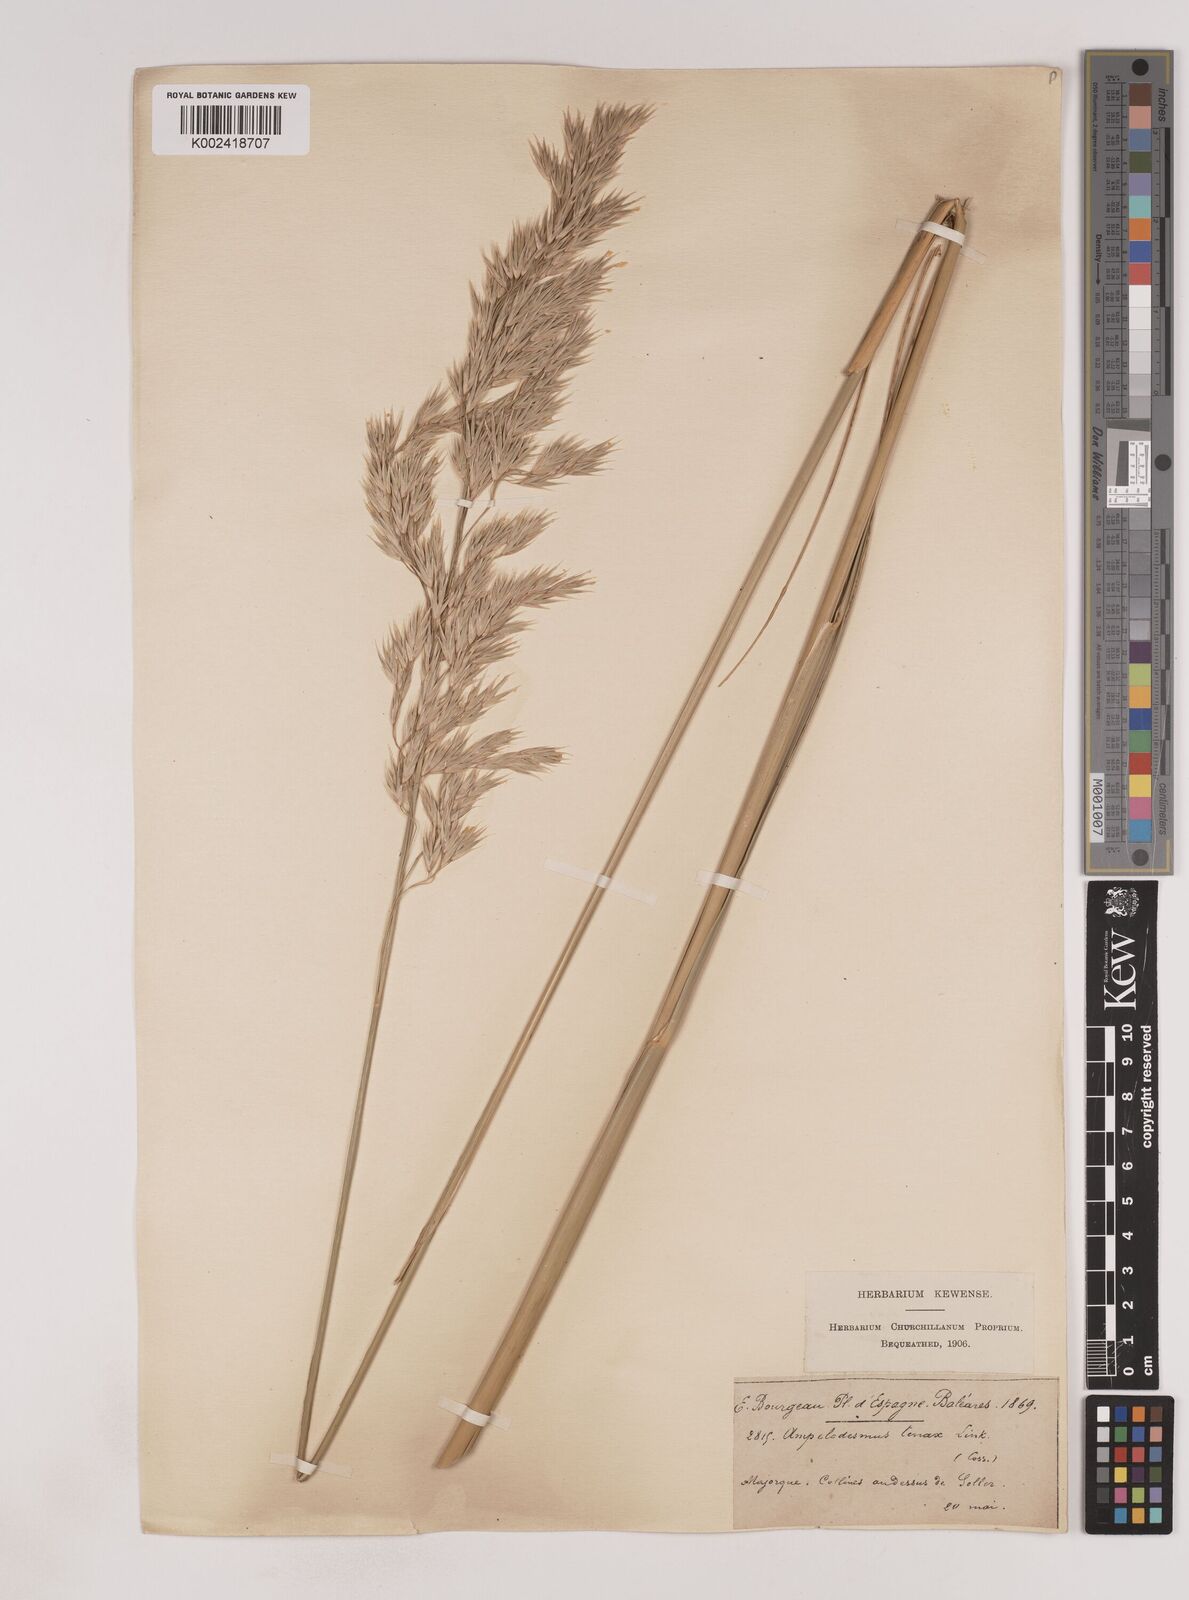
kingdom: Plantae
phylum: Tracheophyta
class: Liliopsida
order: Poales
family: Poaceae
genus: Ampelodesmos
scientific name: Ampelodesmos mauritanicus
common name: Mauritanian grass
